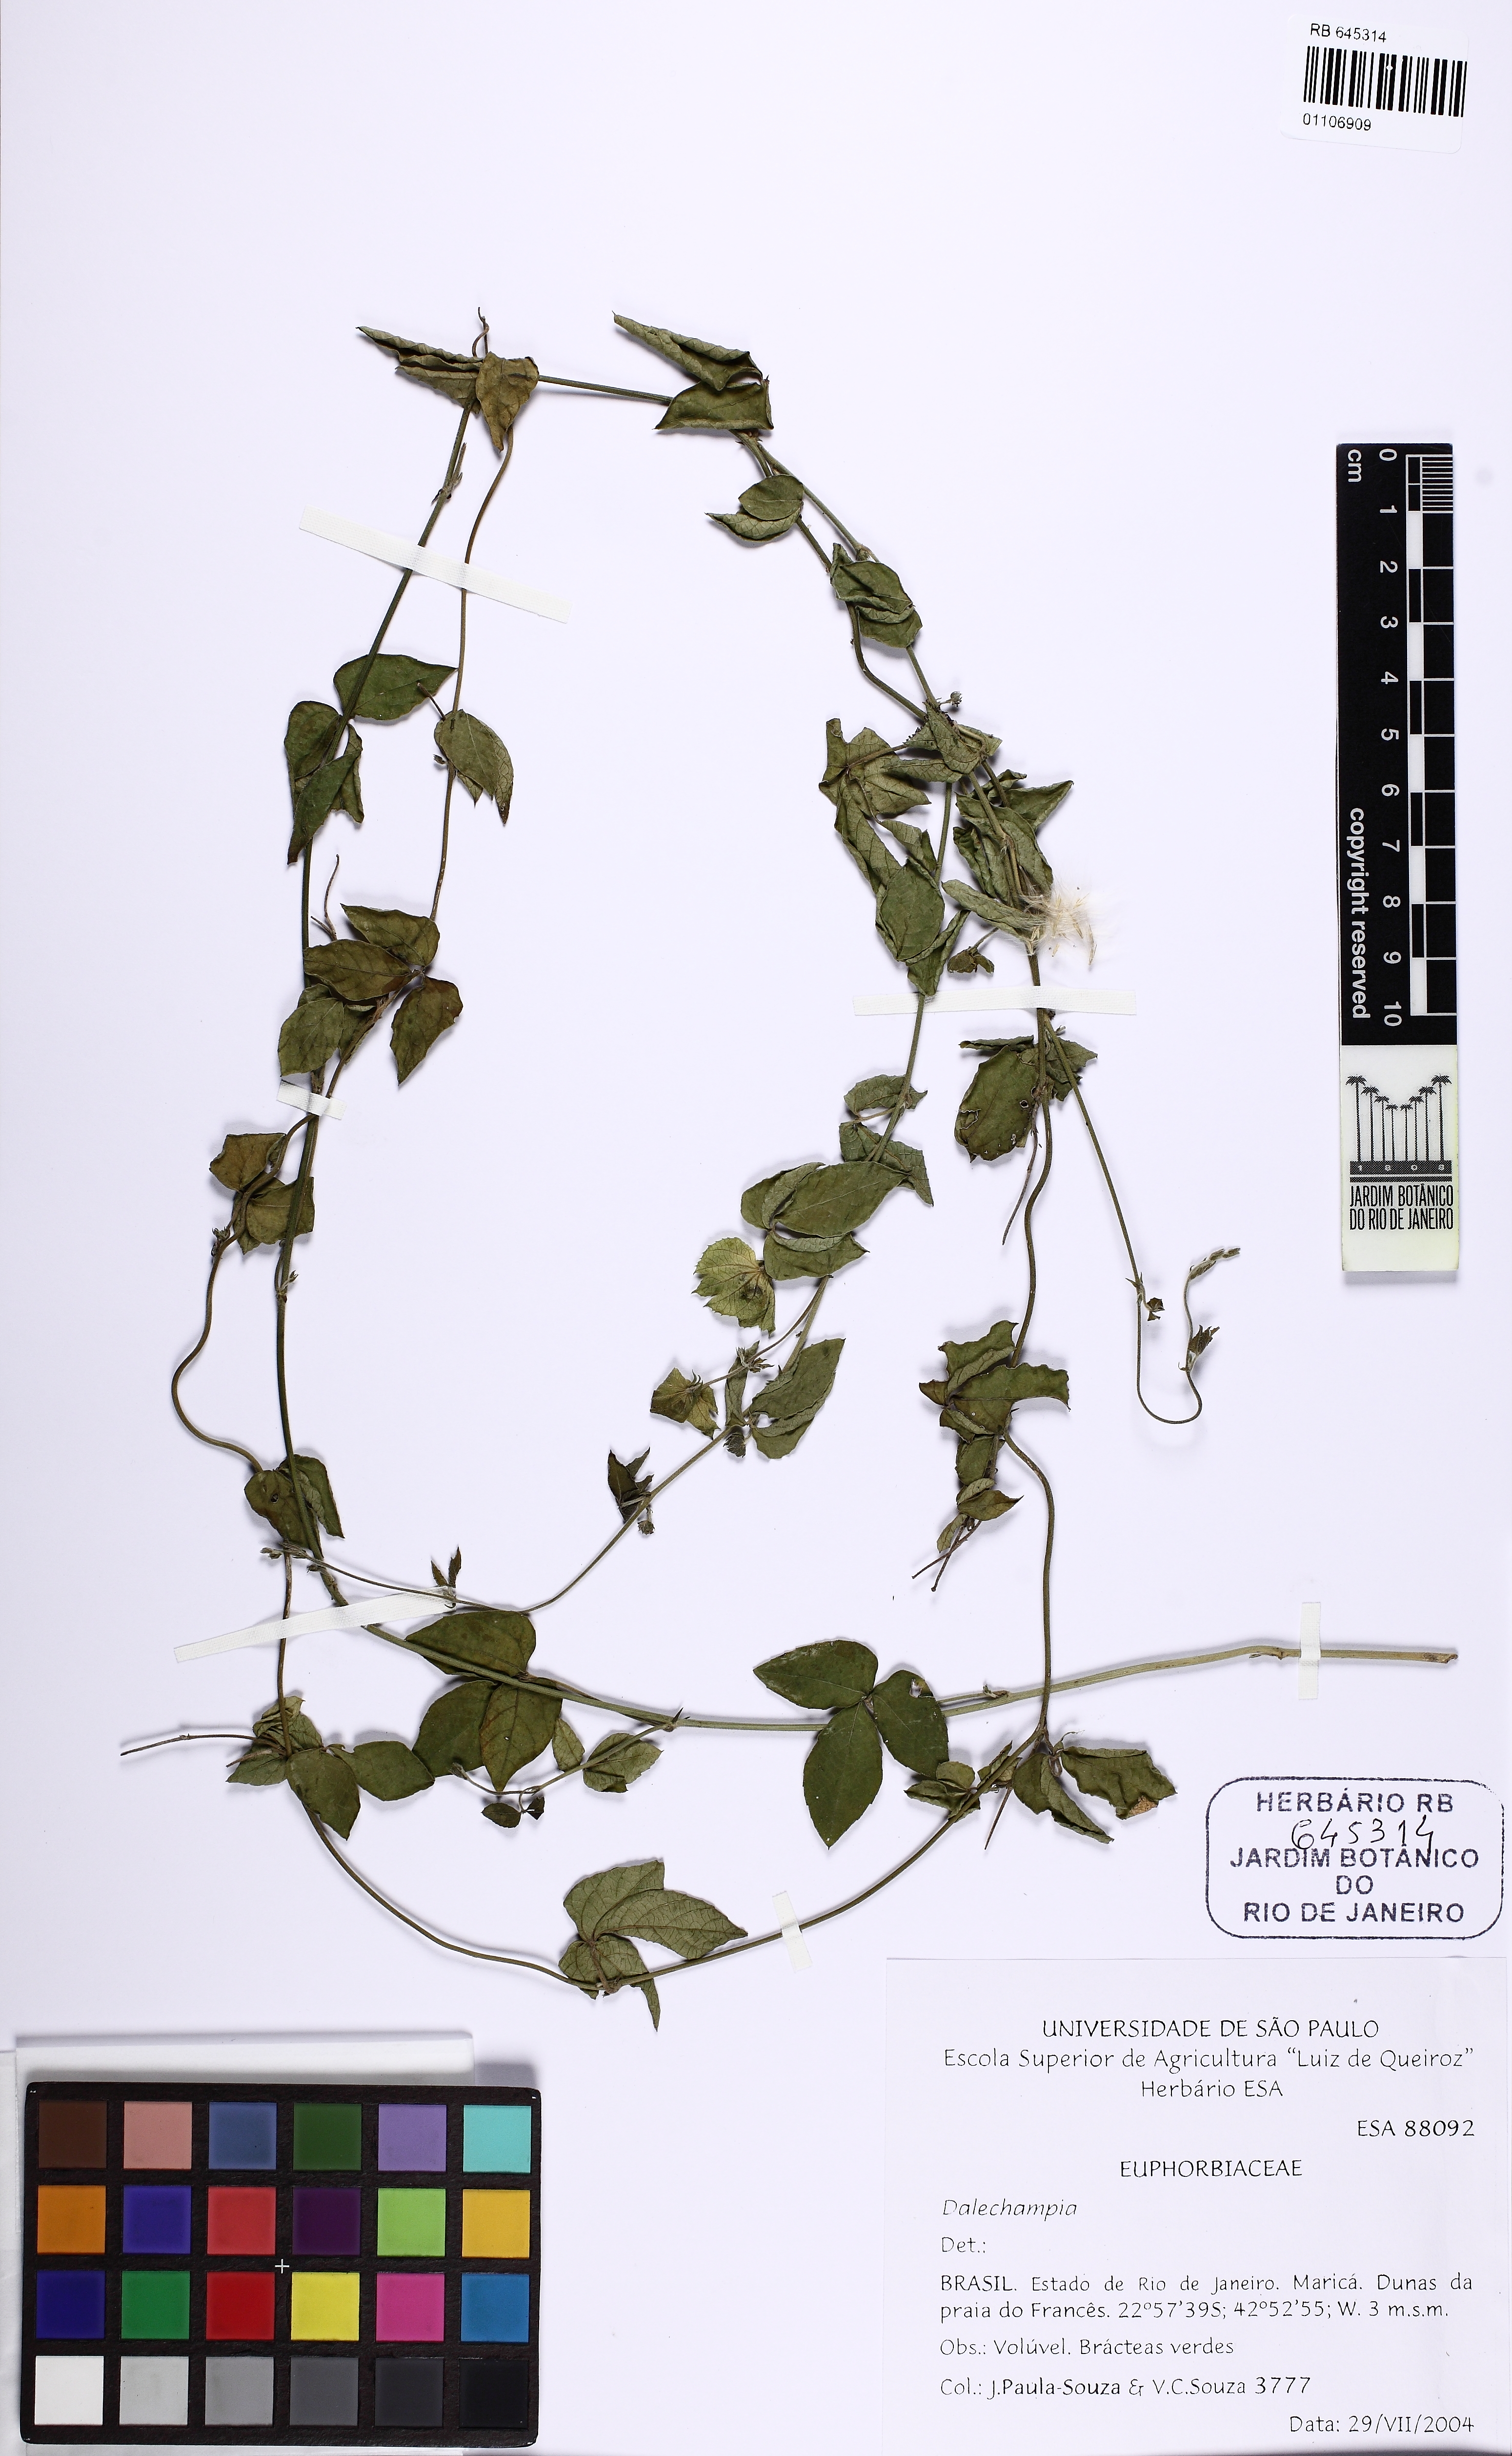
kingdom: Plantae
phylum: Tracheophyta
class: Magnoliopsida
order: Malpighiales
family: Euphorbiaceae
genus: Dalechampia
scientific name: Dalechampia
